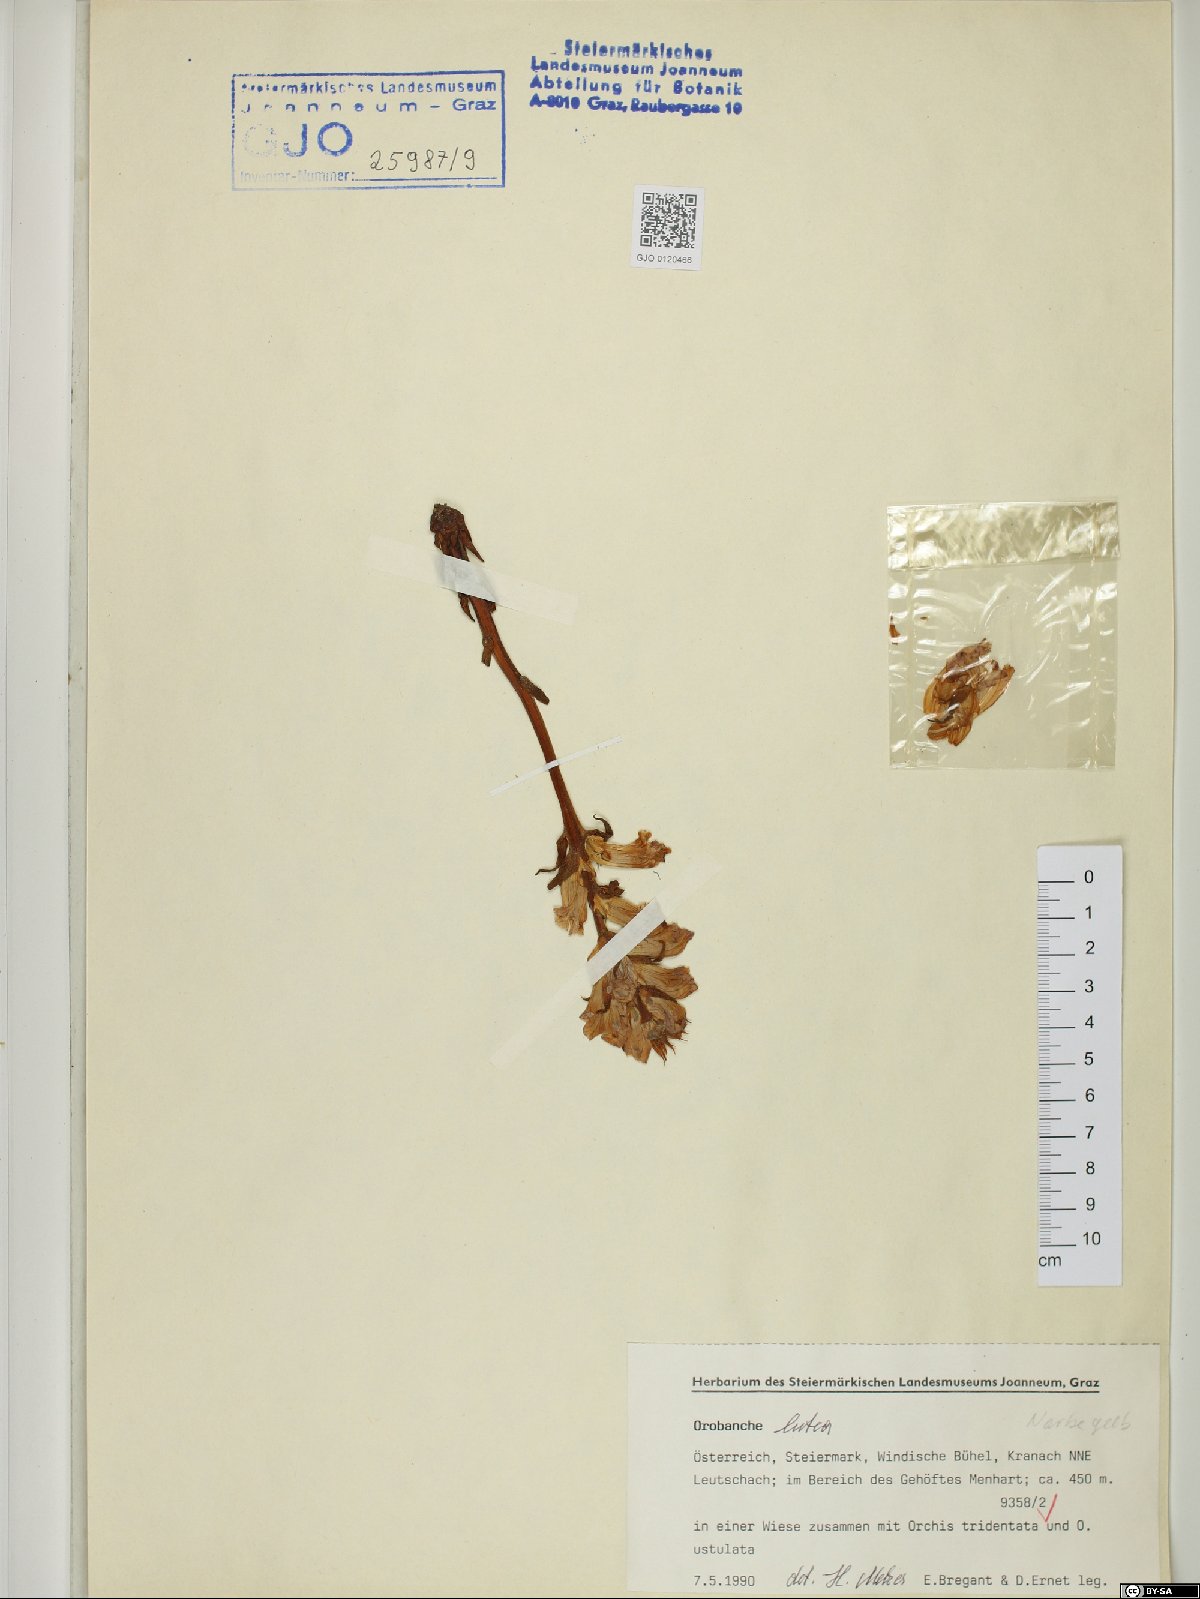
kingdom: Plantae
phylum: Tracheophyta
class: Magnoliopsida
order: Lamiales
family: Orobanchaceae
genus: Orobanche
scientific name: Orobanche lutea
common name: Yellow broomrape
